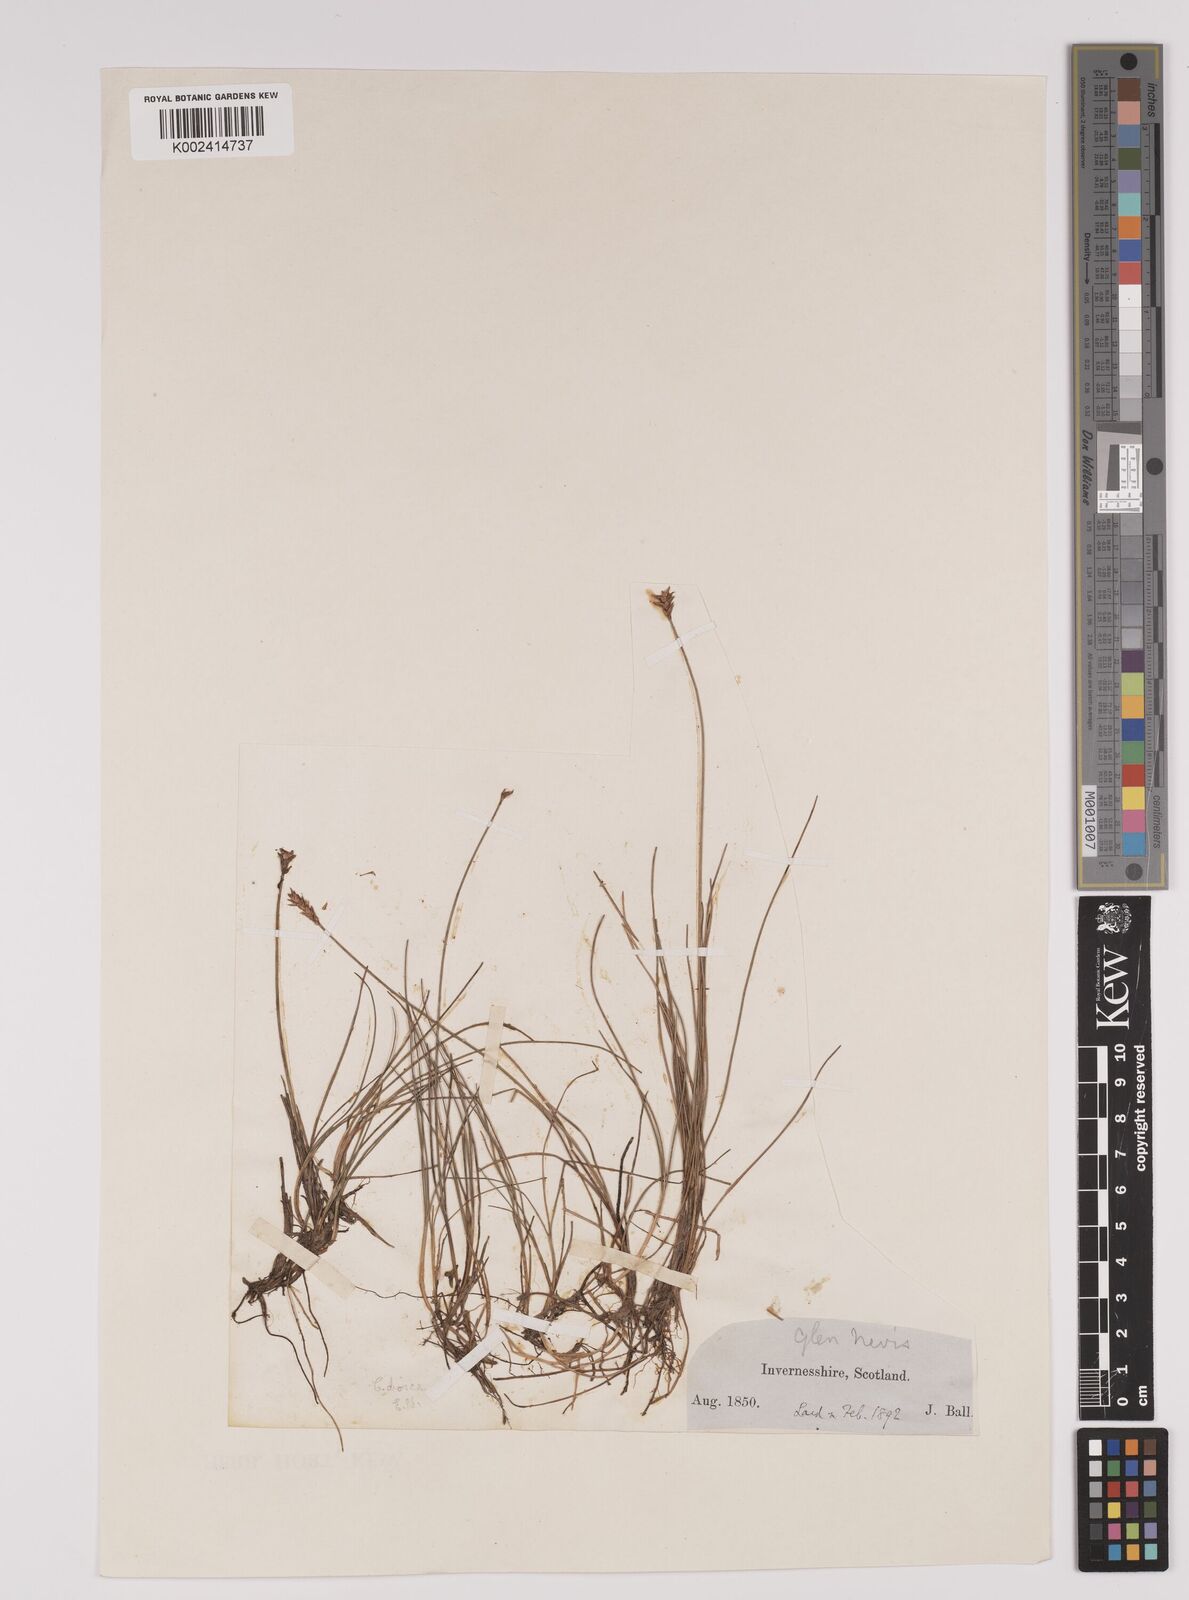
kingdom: Plantae
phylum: Tracheophyta
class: Liliopsida
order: Poales
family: Cyperaceae
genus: Carex
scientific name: Carex dioica
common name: Dioecious sedge
